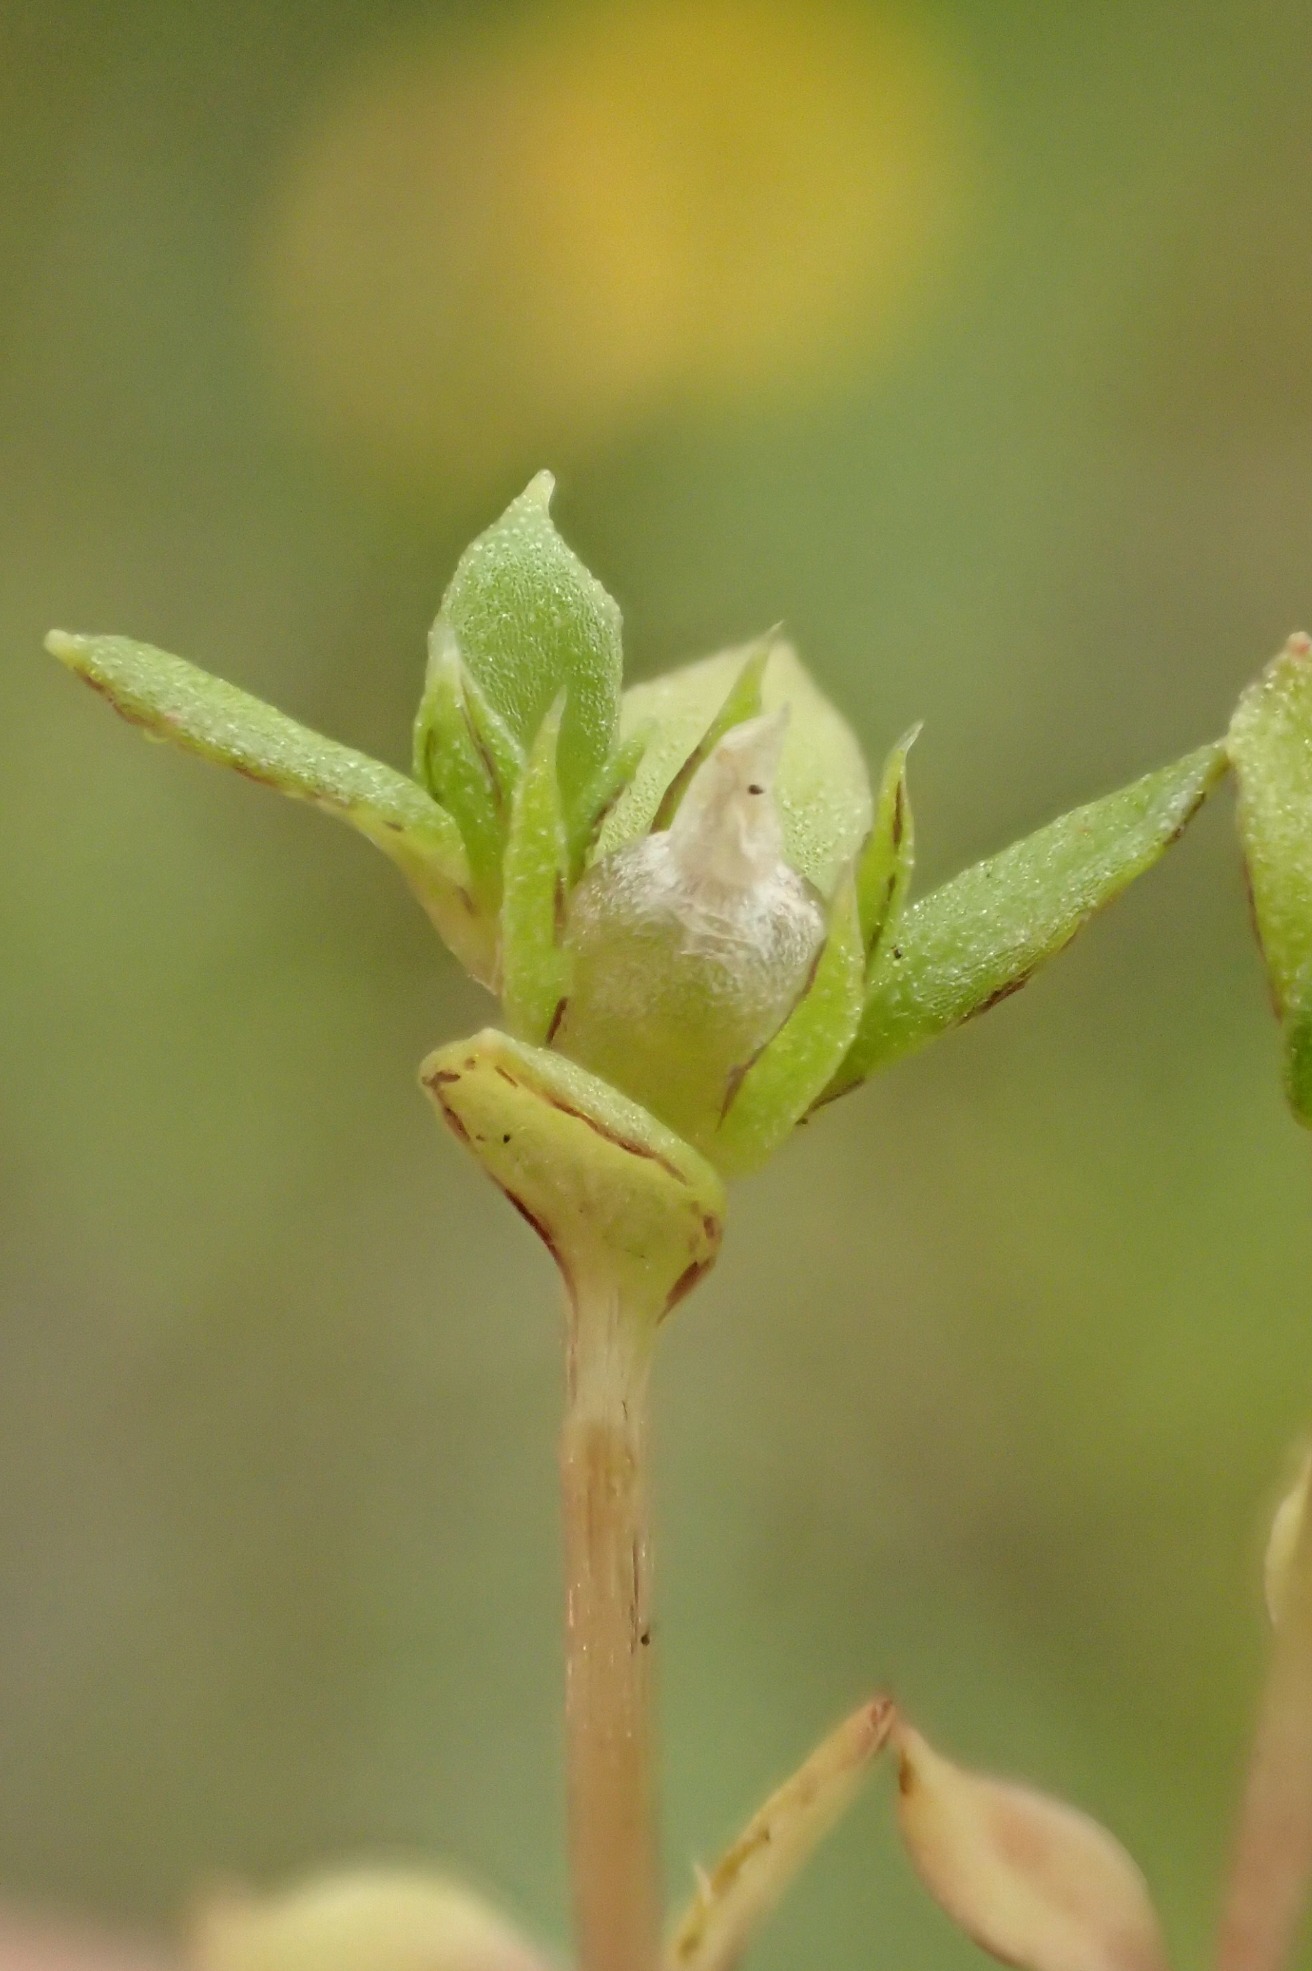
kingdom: Plantae
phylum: Tracheophyta
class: Magnoliopsida
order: Ericales
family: Primulaceae
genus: Lysimachia
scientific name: Lysimachia minima
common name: Knudearve
